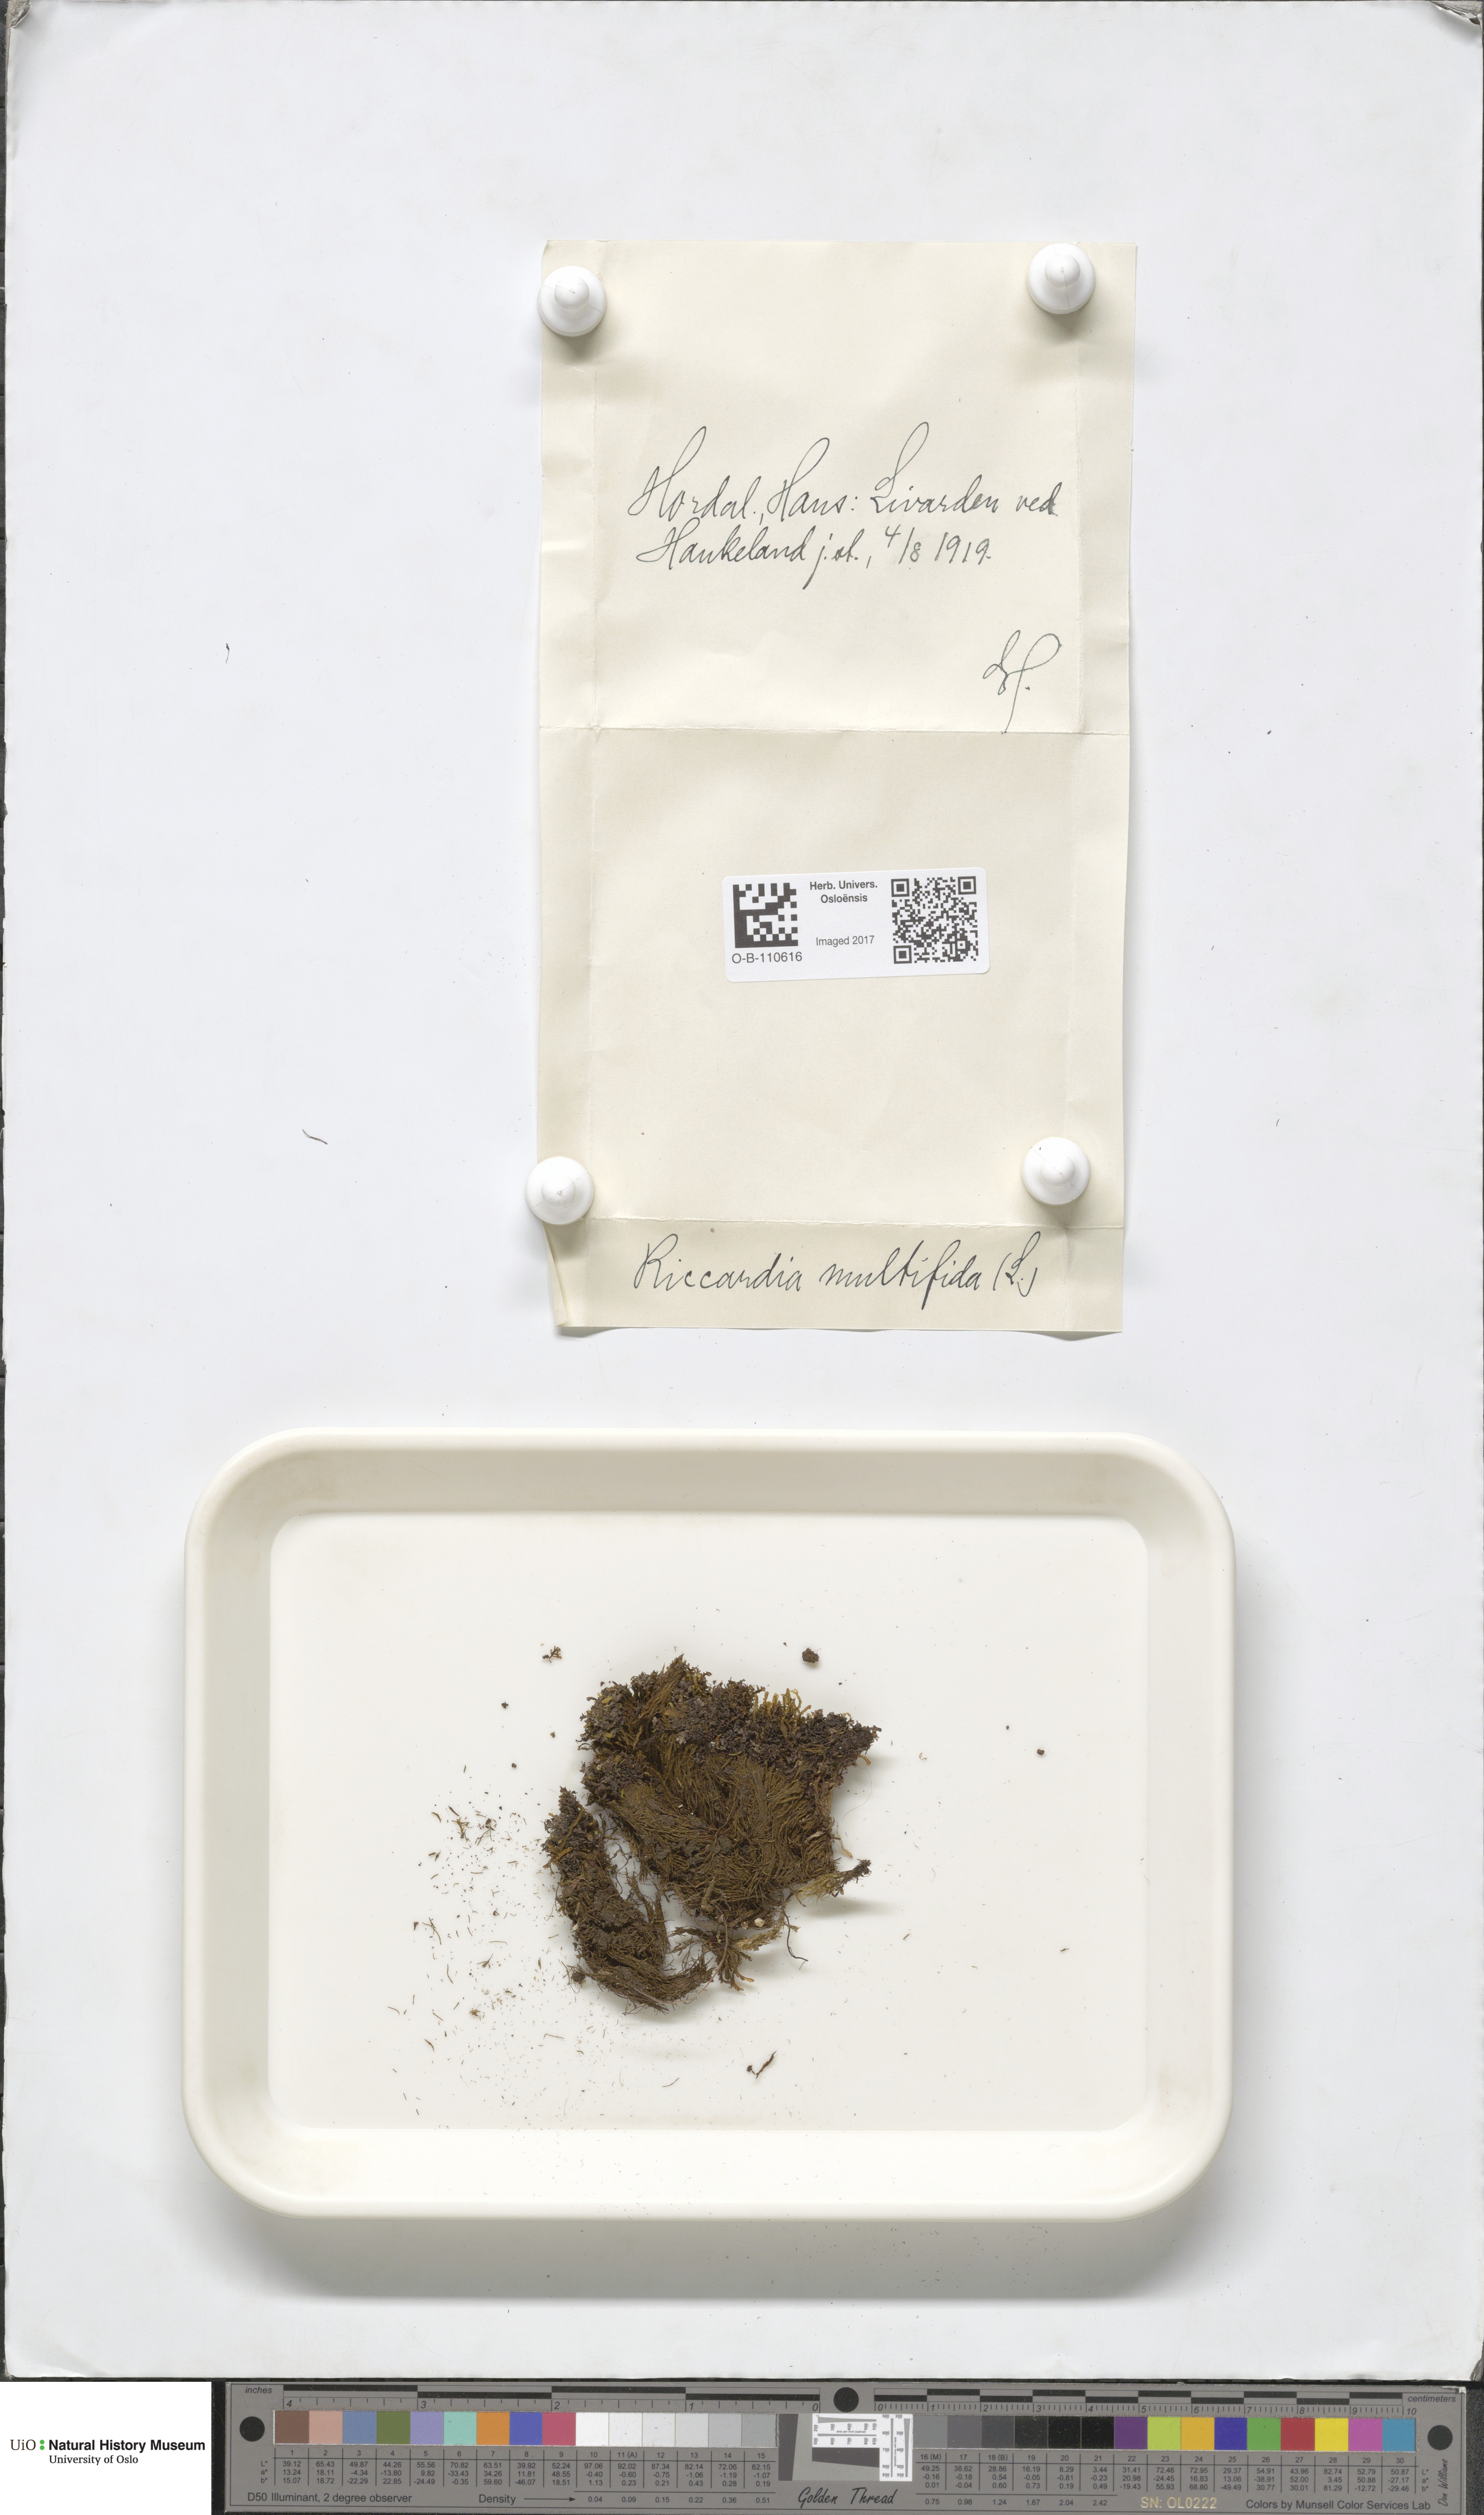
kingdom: Plantae
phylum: Marchantiophyta
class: Jungermanniopsida
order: Metzgeriales
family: Aneuraceae
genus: Riccardia
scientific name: Riccardia multifida
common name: Delicate germanderwort
